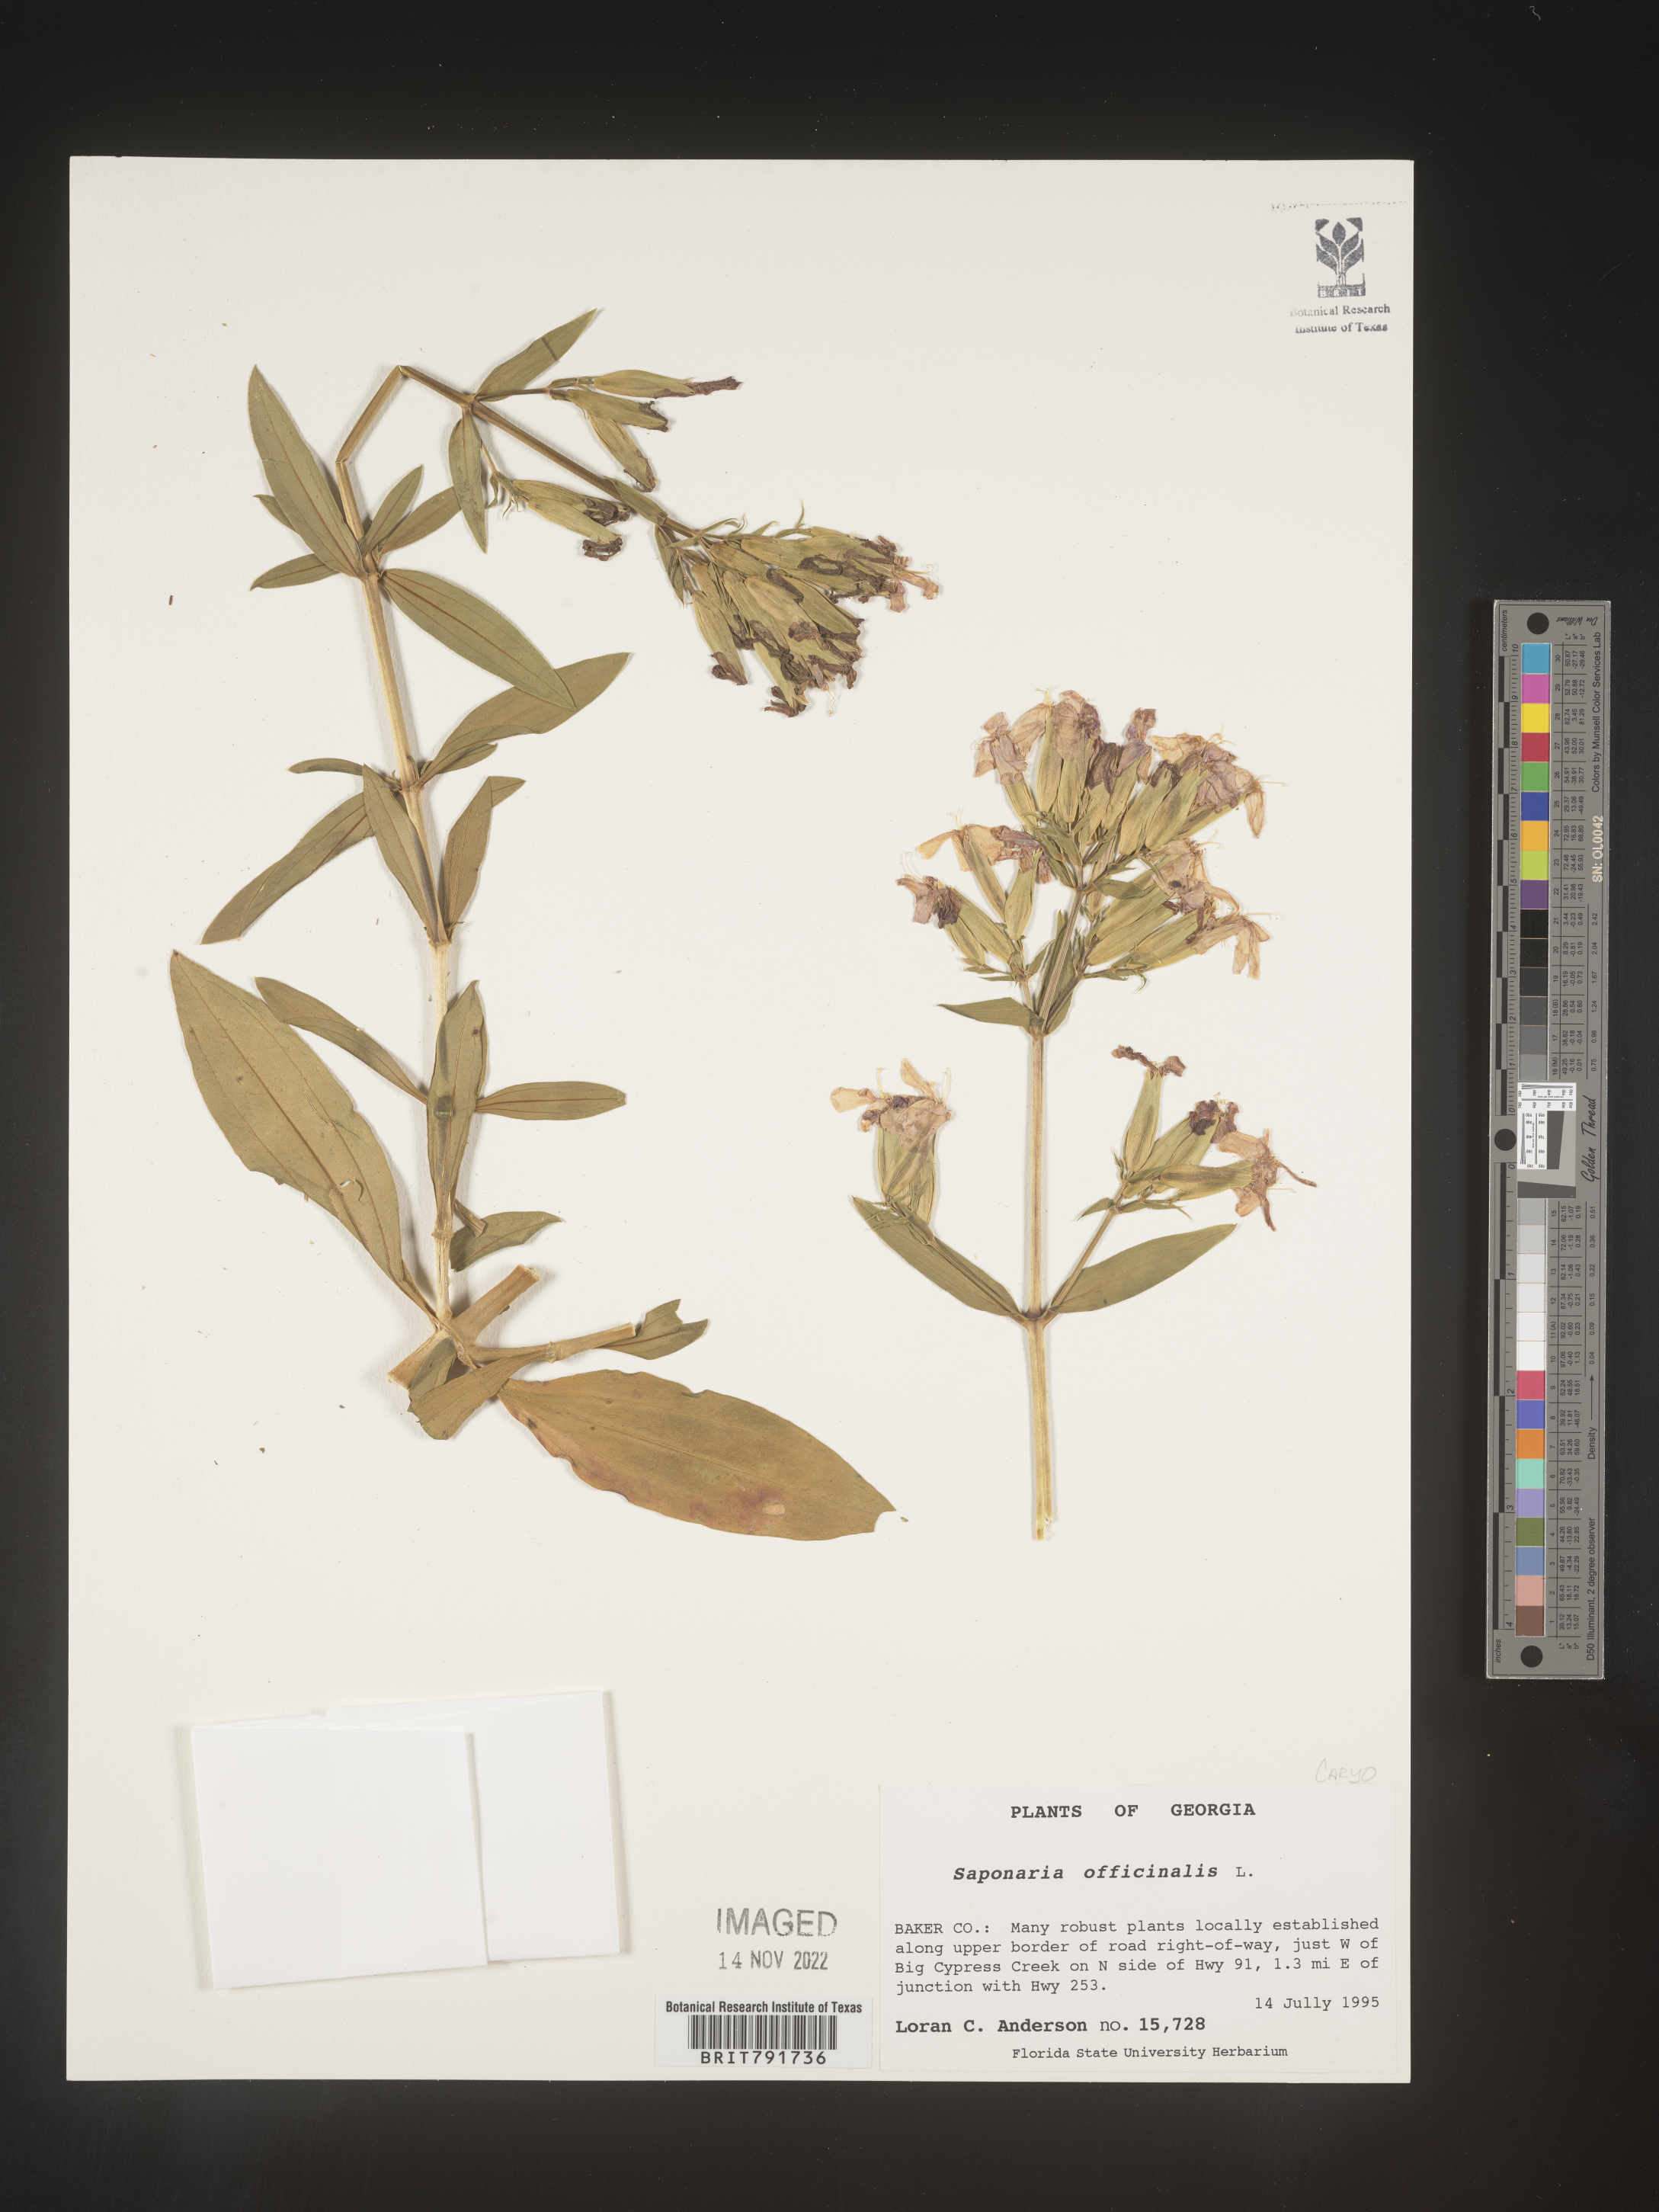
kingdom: Plantae
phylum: Tracheophyta
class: Magnoliopsida
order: Caryophyllales
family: Caryophyllaceae
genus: Saponaria
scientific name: Saponaria officinalis
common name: Soapwort
